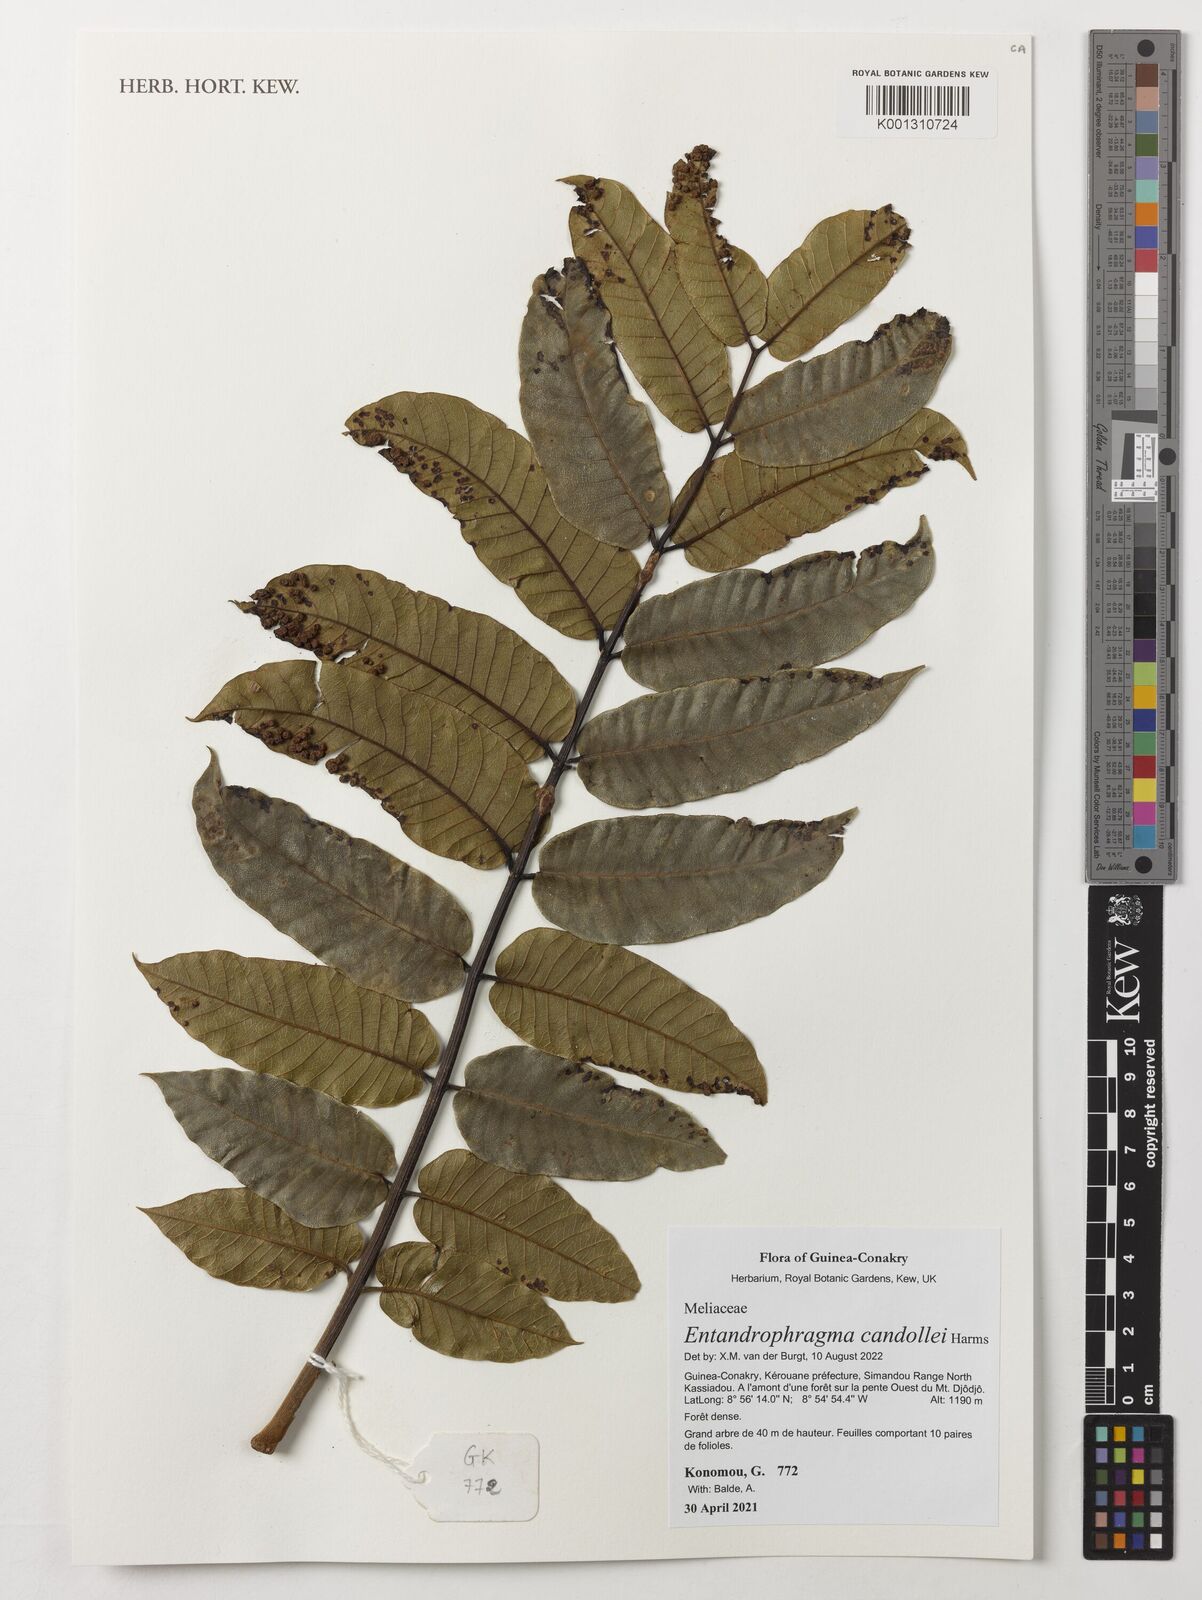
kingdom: Plantae
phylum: Tracheophyta
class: Magnoliopsida
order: Sapindales
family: Meliaceae
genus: Entandrophragma
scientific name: Entandrophragma candollei
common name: Cedar kokoti
